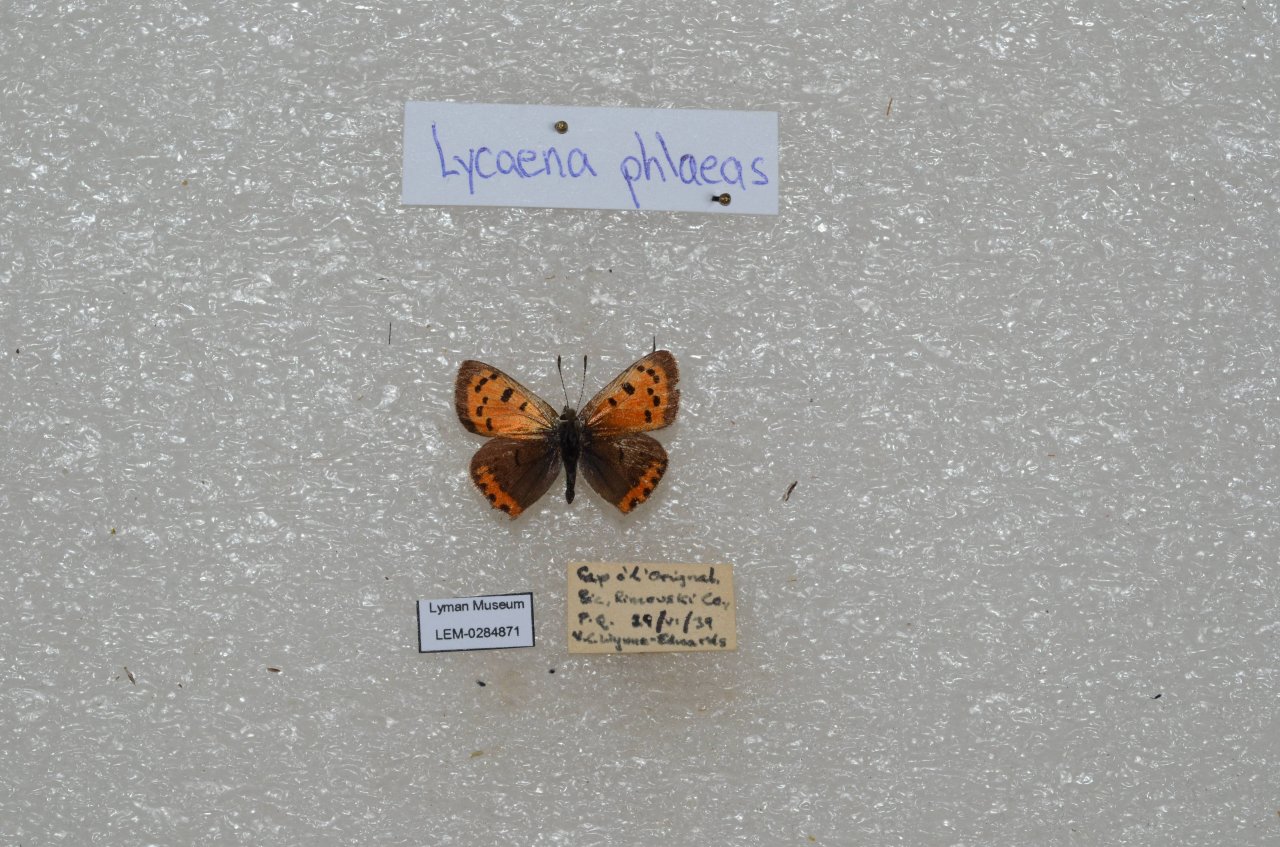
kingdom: Animalia
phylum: Arthropoda
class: Insecta
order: Lepidoptera
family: Lycaenidae
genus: Lycaena
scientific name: Lycaena phlaeas
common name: American Copper
